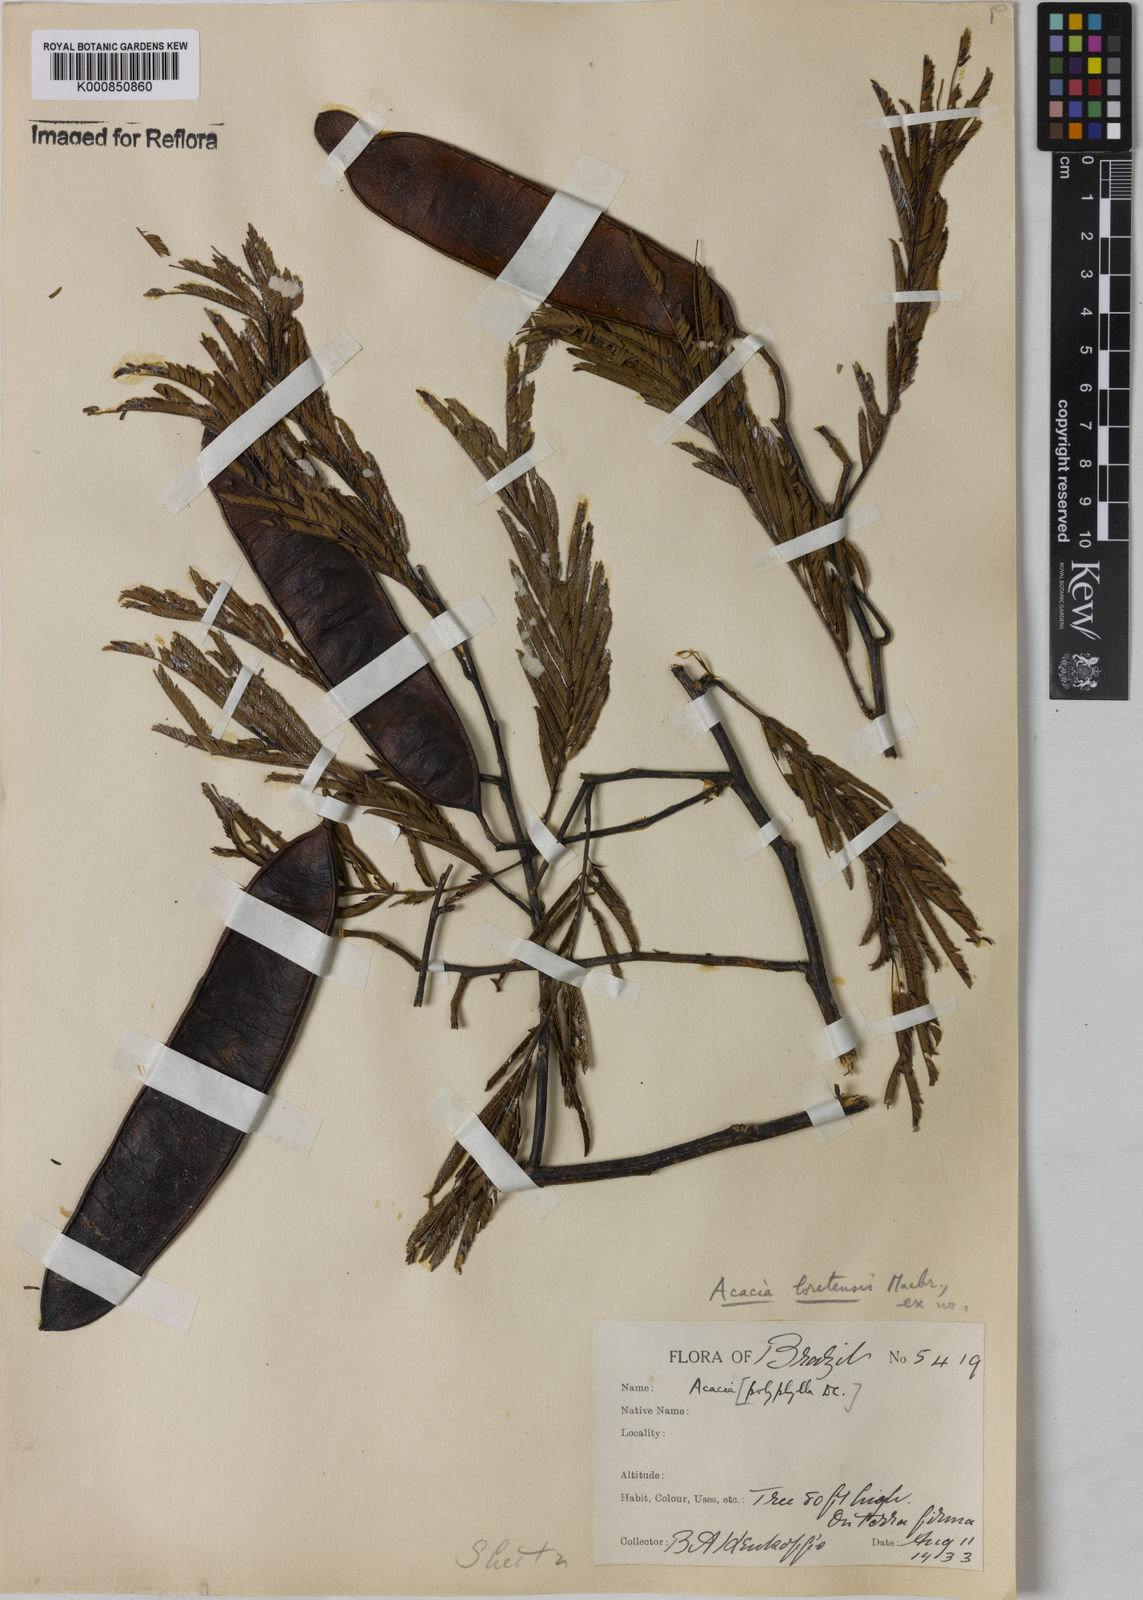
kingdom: Plantae
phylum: Tracheophyta
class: Magnoliopsida
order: Fabales
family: Fabaceae
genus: Senegalia
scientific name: Senegalia polyphylla
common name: White-tamarind
